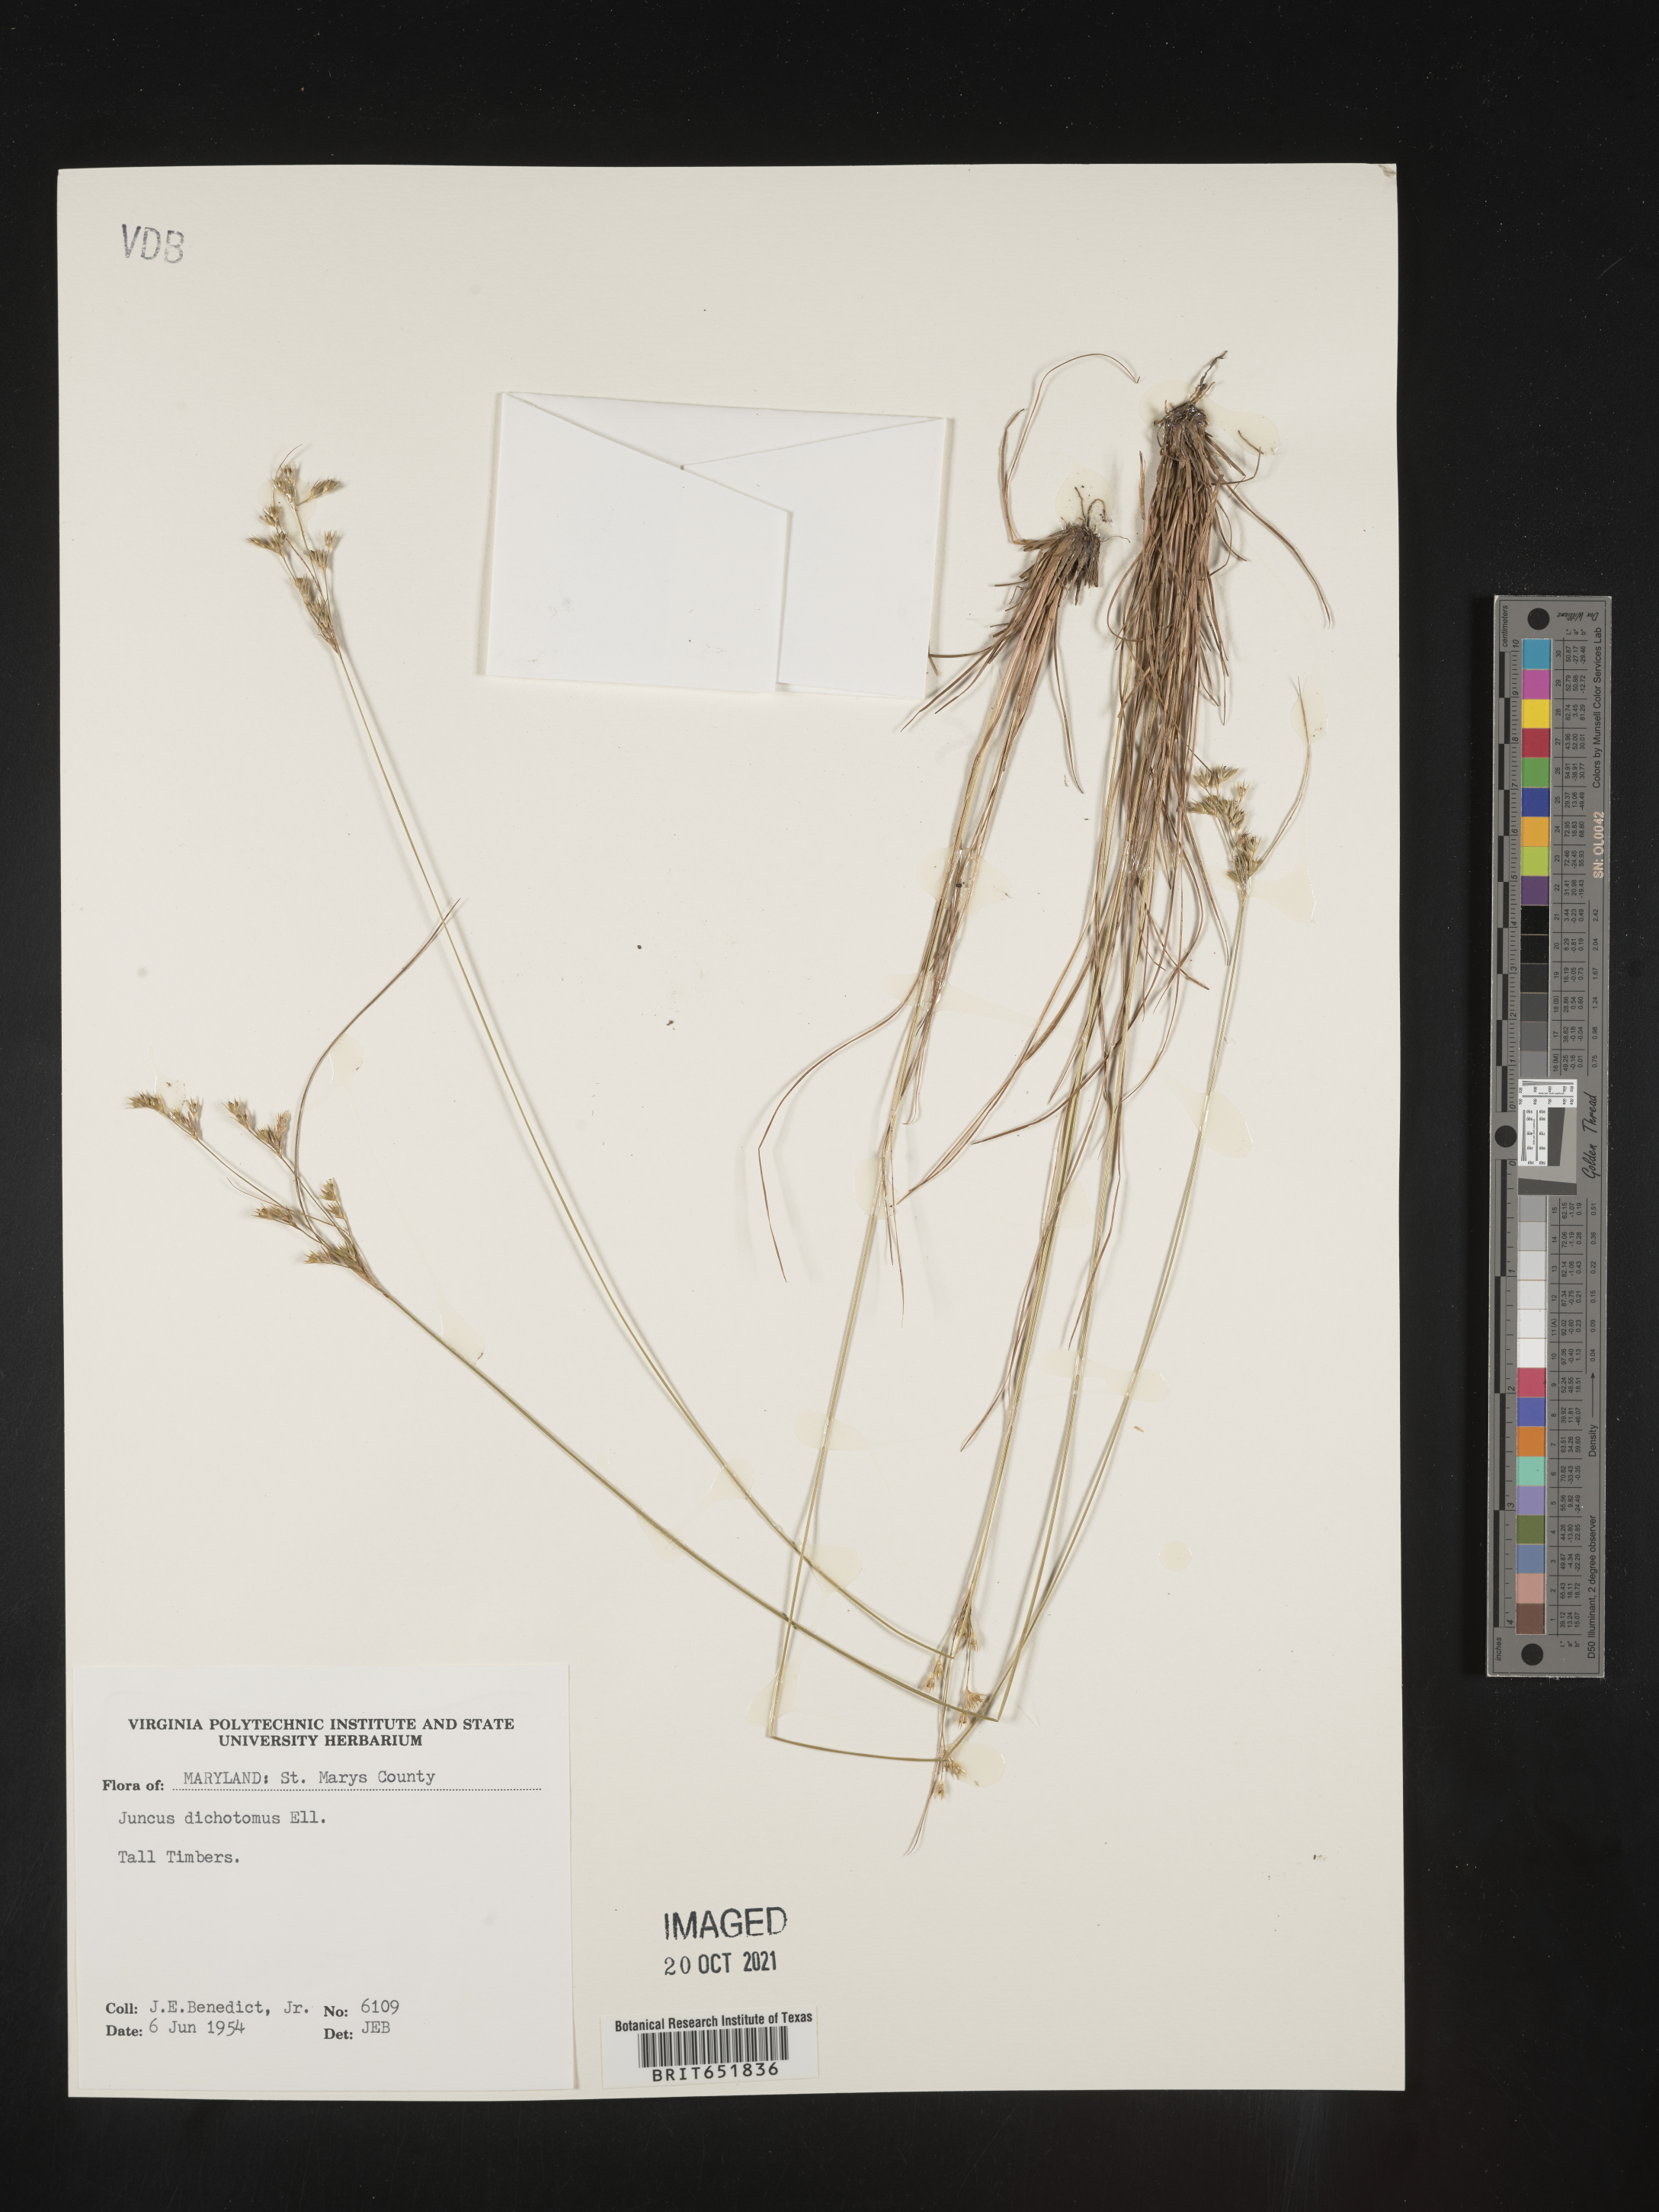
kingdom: Plantae
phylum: Tracheophyta
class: Liliopsida
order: Poales
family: Juncaceae
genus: Juncus
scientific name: Juncus dichotomus
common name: Forked rush
